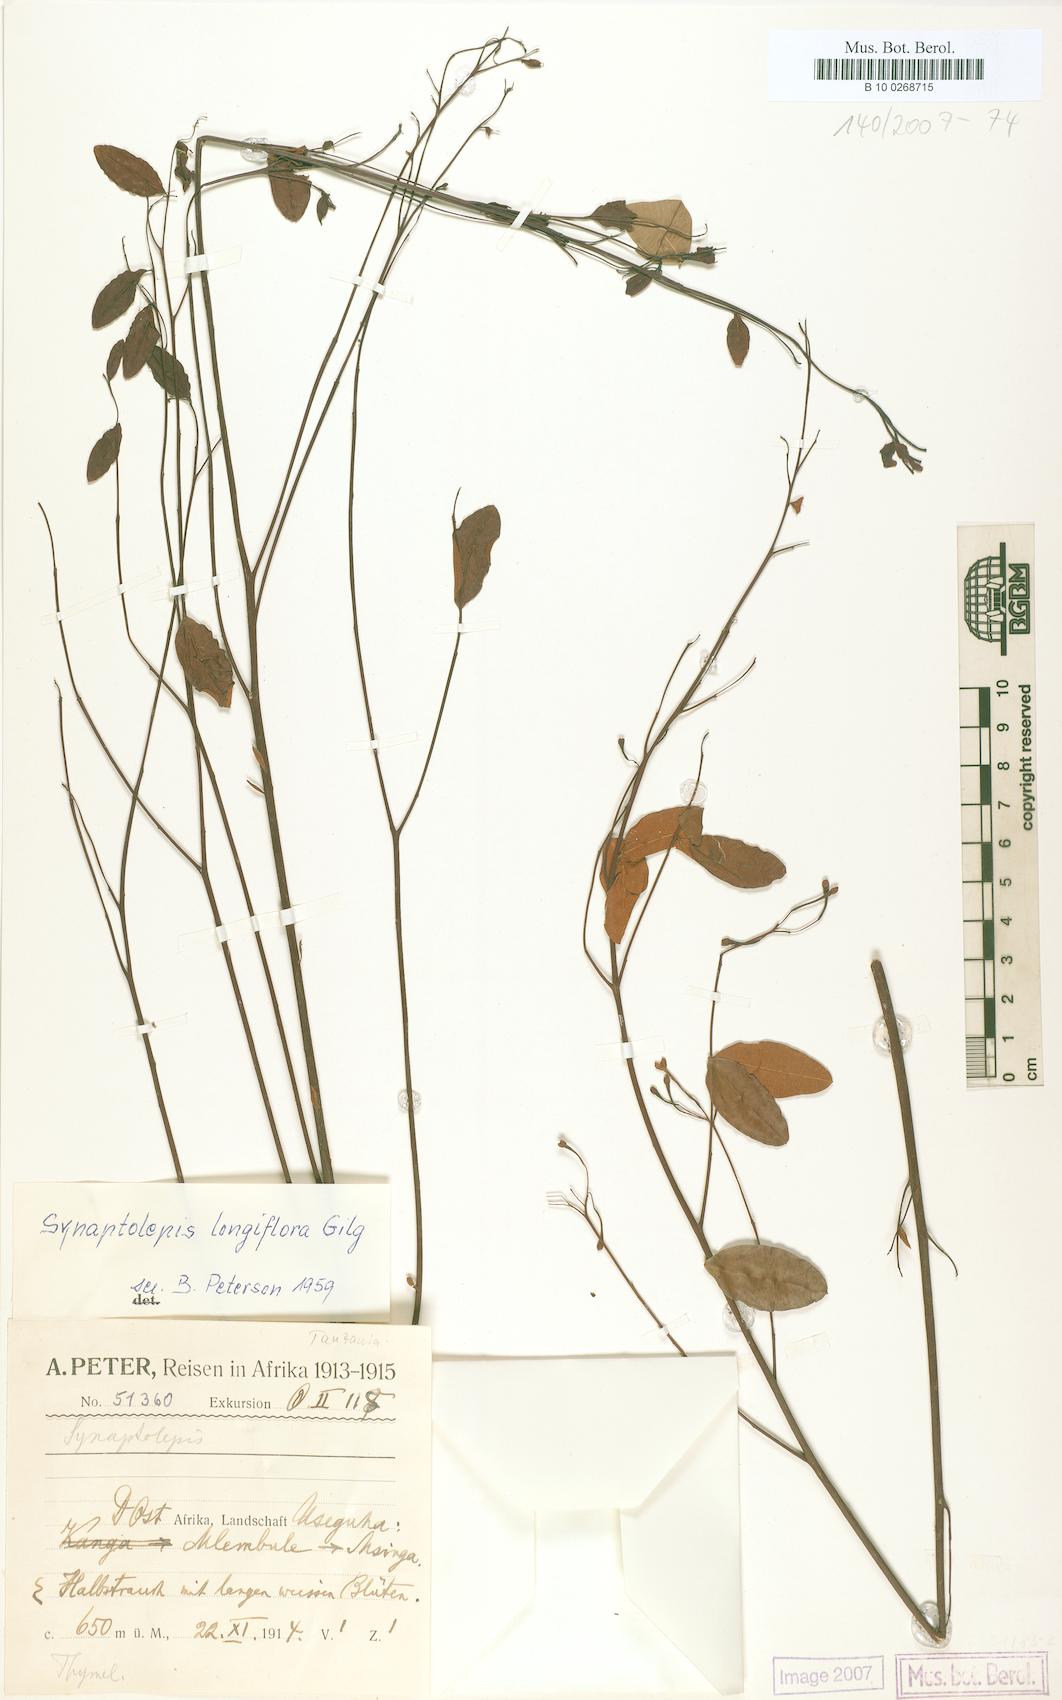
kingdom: Plantae
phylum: Tracheophyta
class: Magnoliopsida
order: Malvales
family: Thymelaeaceae
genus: Synaptolepis
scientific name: Synaptolepis alternifolia
